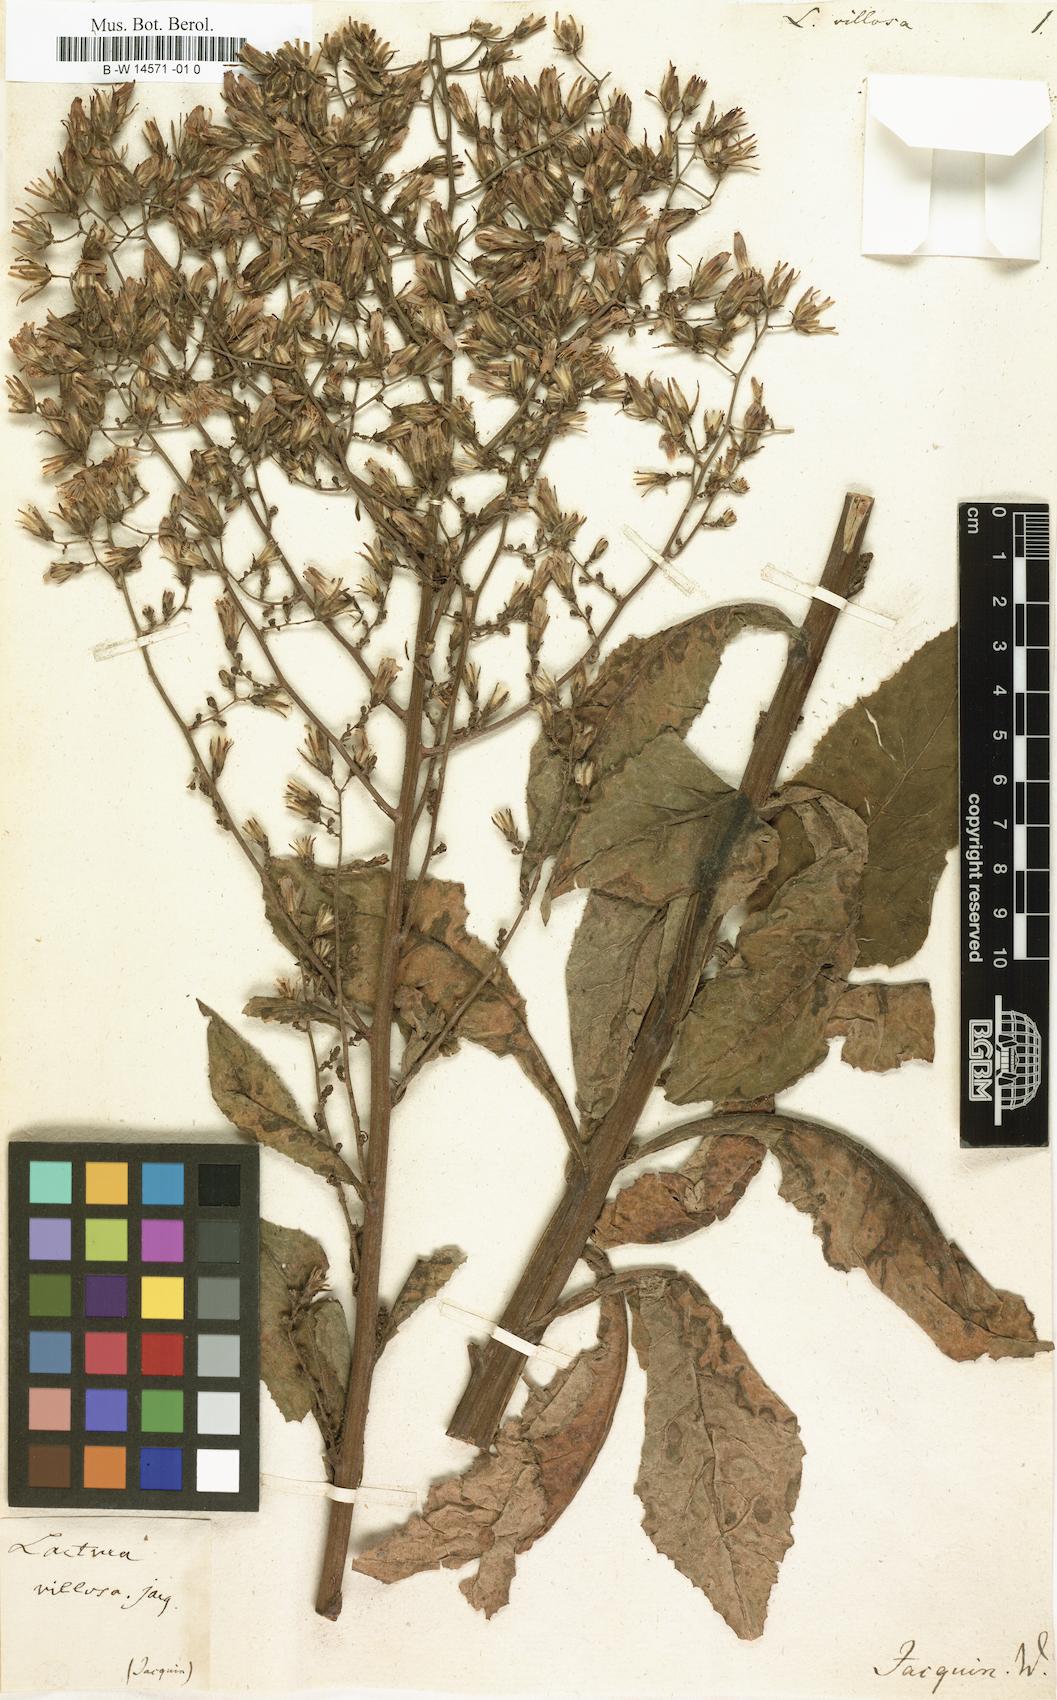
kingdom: Plantae
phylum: Tracheophyta
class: Magnoliopsida
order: Asterales
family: Asteraceae
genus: Lactuca
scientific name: Lactuca villosa
